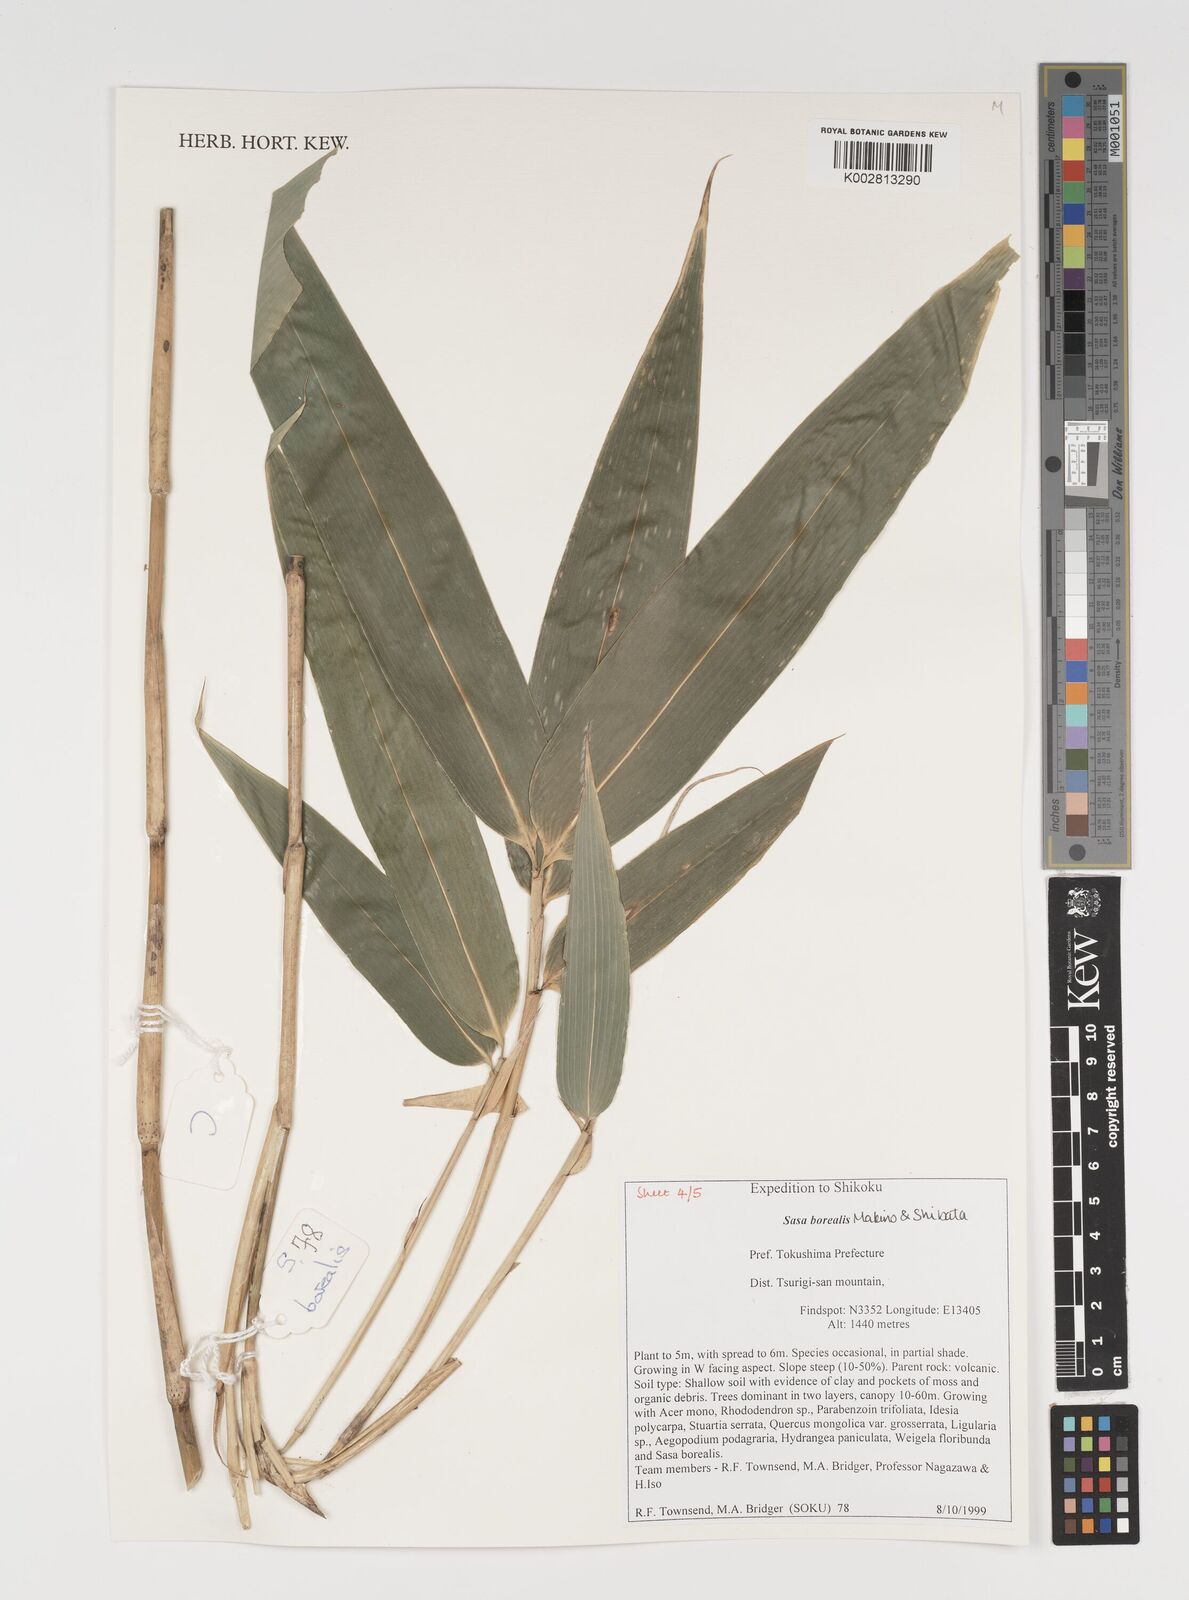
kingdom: Plantae
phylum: Tracheophyta
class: Liliopsida
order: Poales
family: Poaceae
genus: Sasamorpha
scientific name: Sasamorpha borealis
